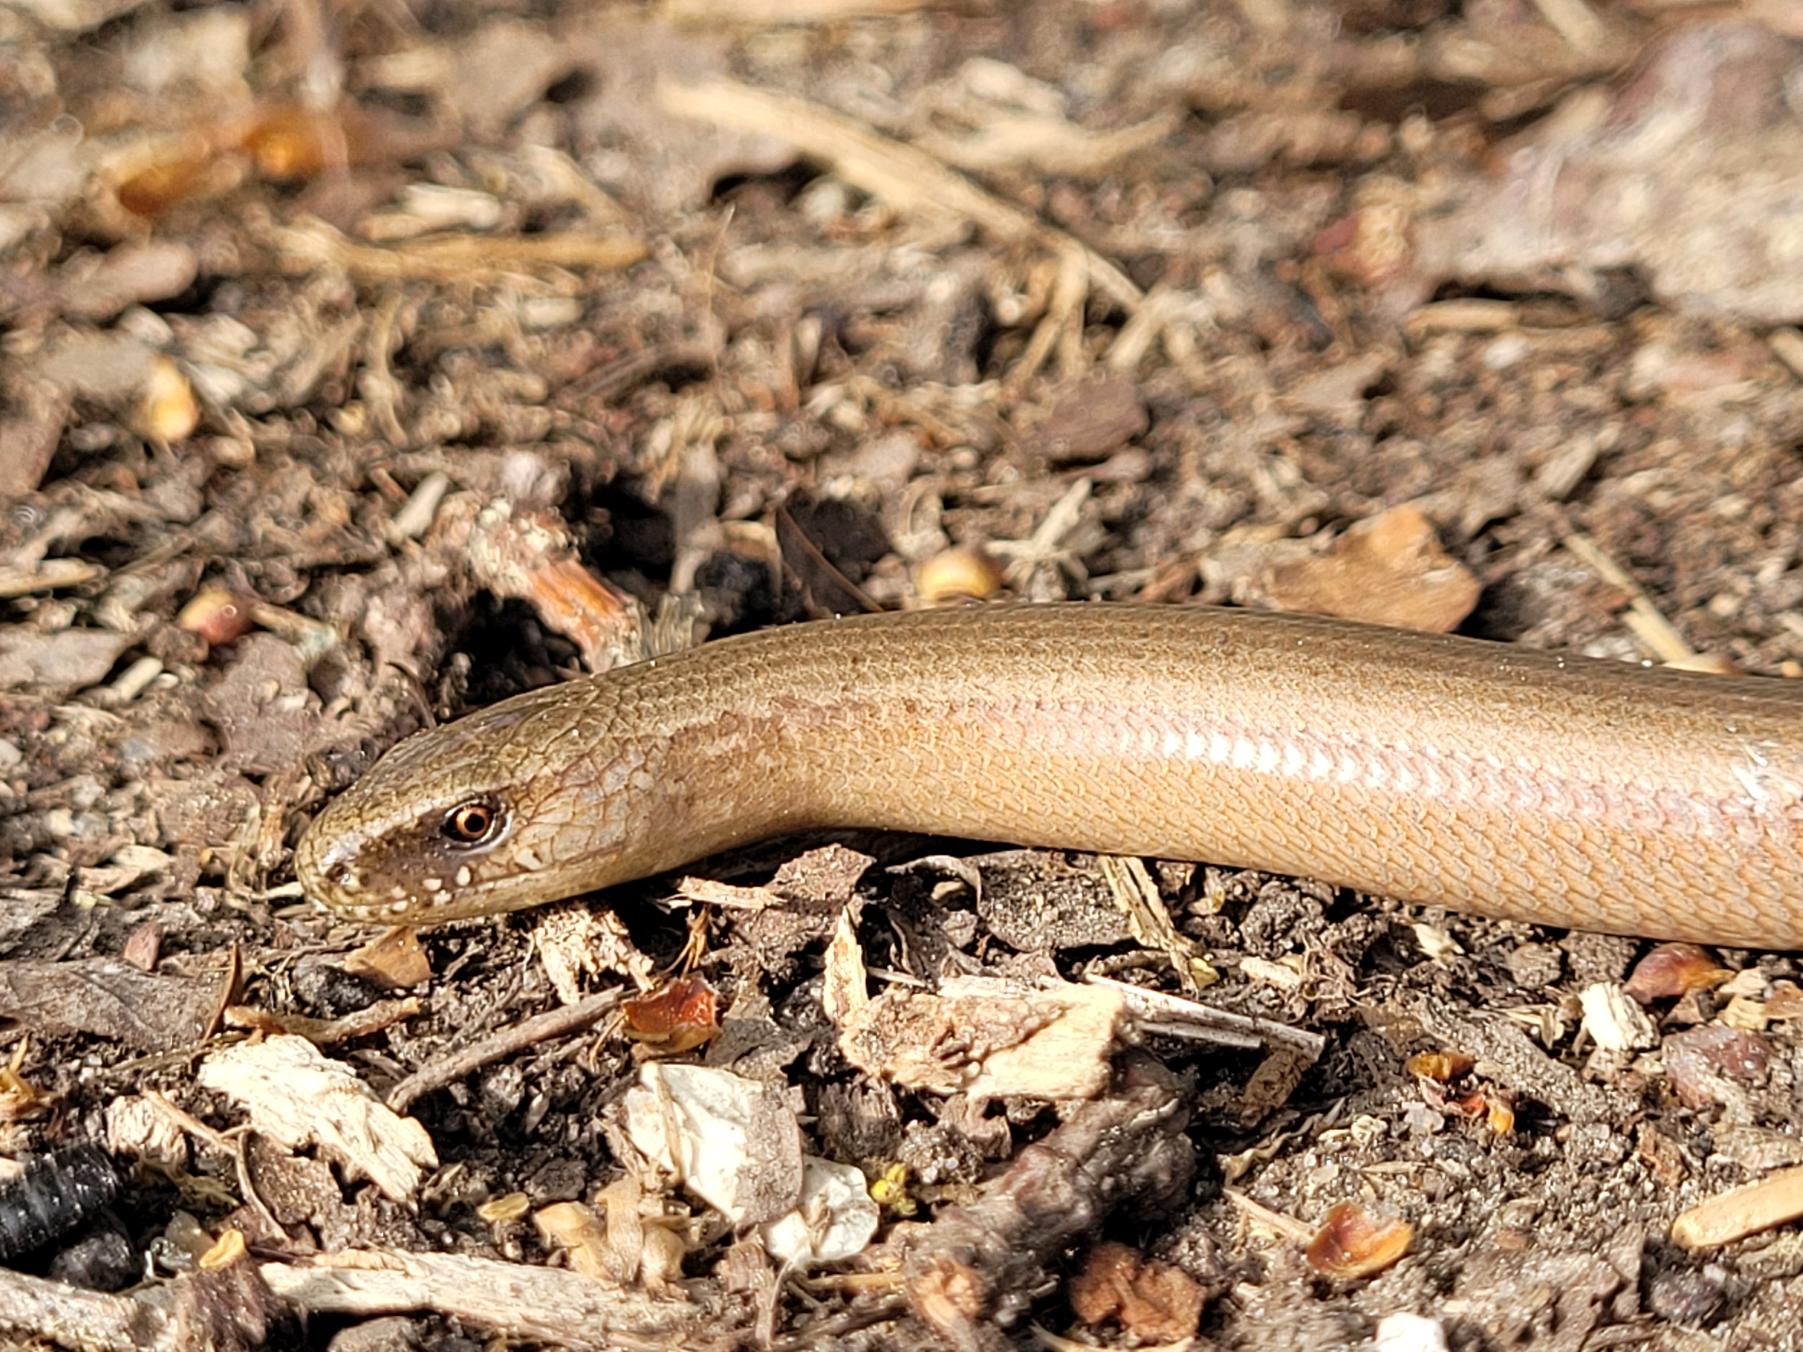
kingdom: Animalia
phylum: Chordata
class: Squamata
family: Anguidae
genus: Anguis
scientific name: Anguis fragilis
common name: Stålorm
